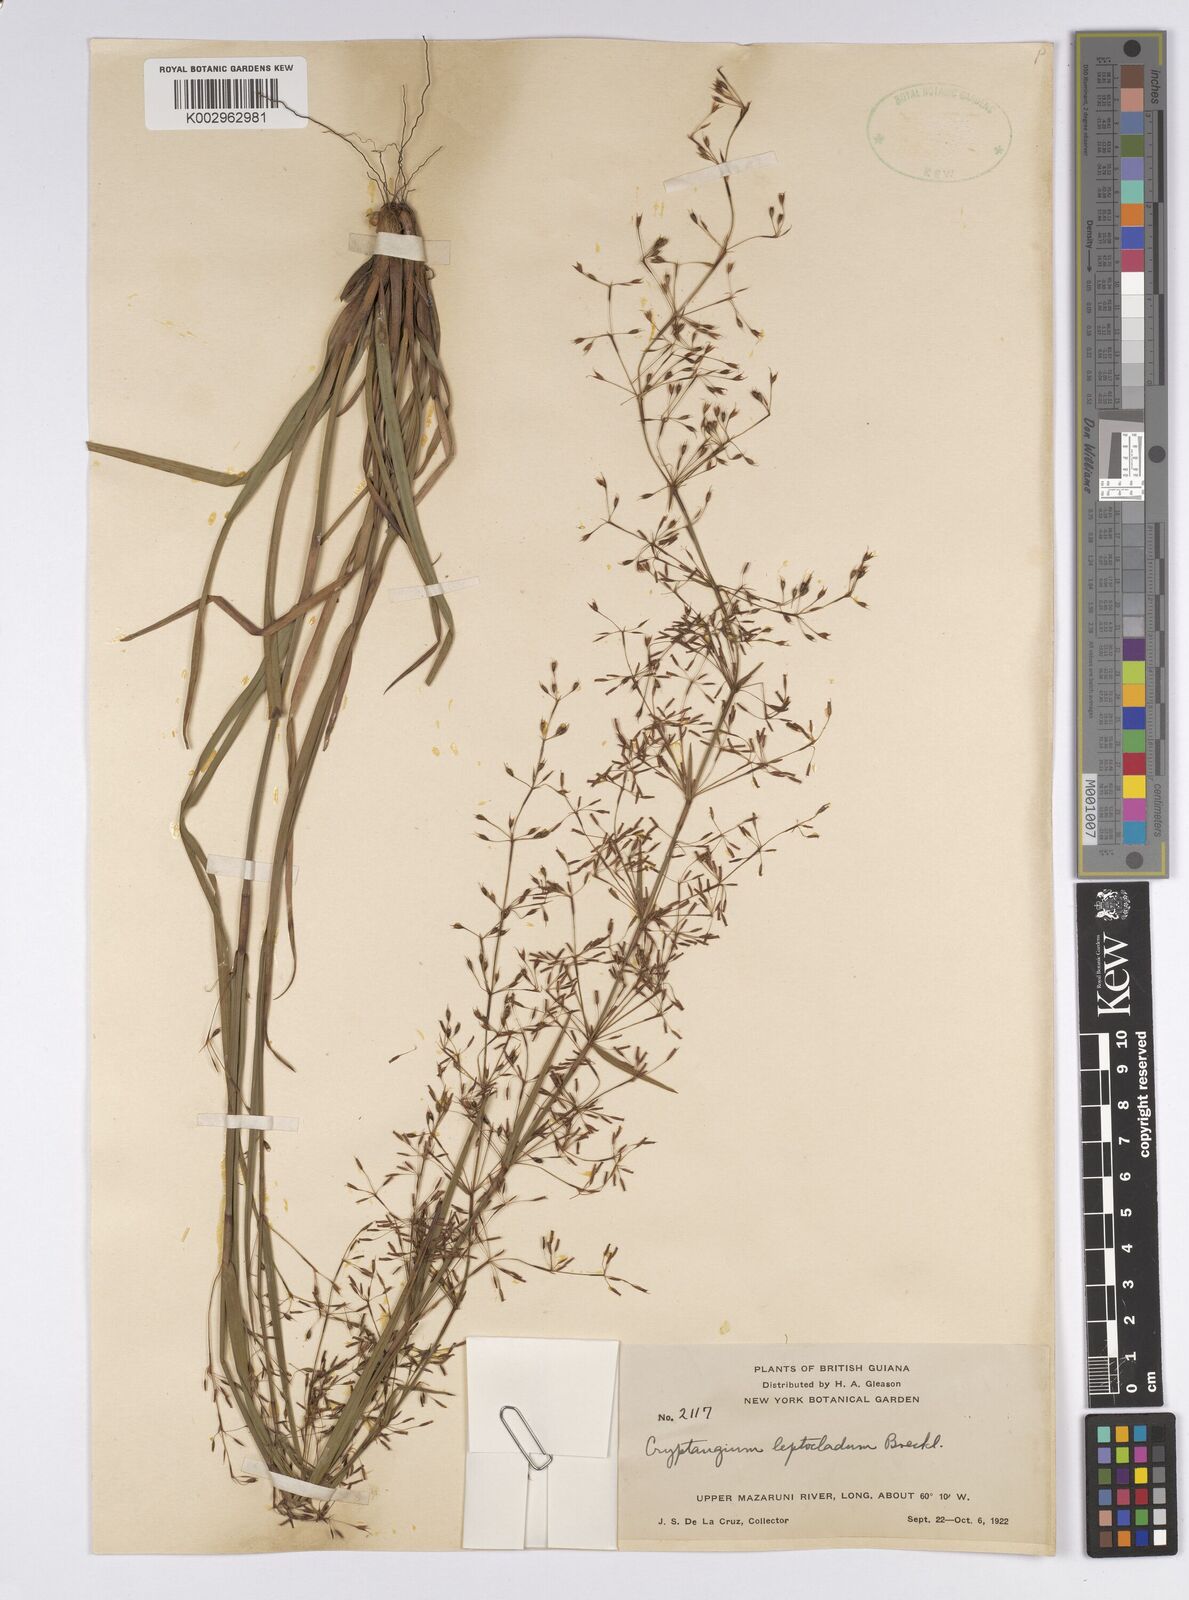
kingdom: Plantae
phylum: Tracheophyta
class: Liliopsida
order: Poales
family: Cyperaceae
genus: Cryptangium
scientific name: Cryptangium verticillatum
